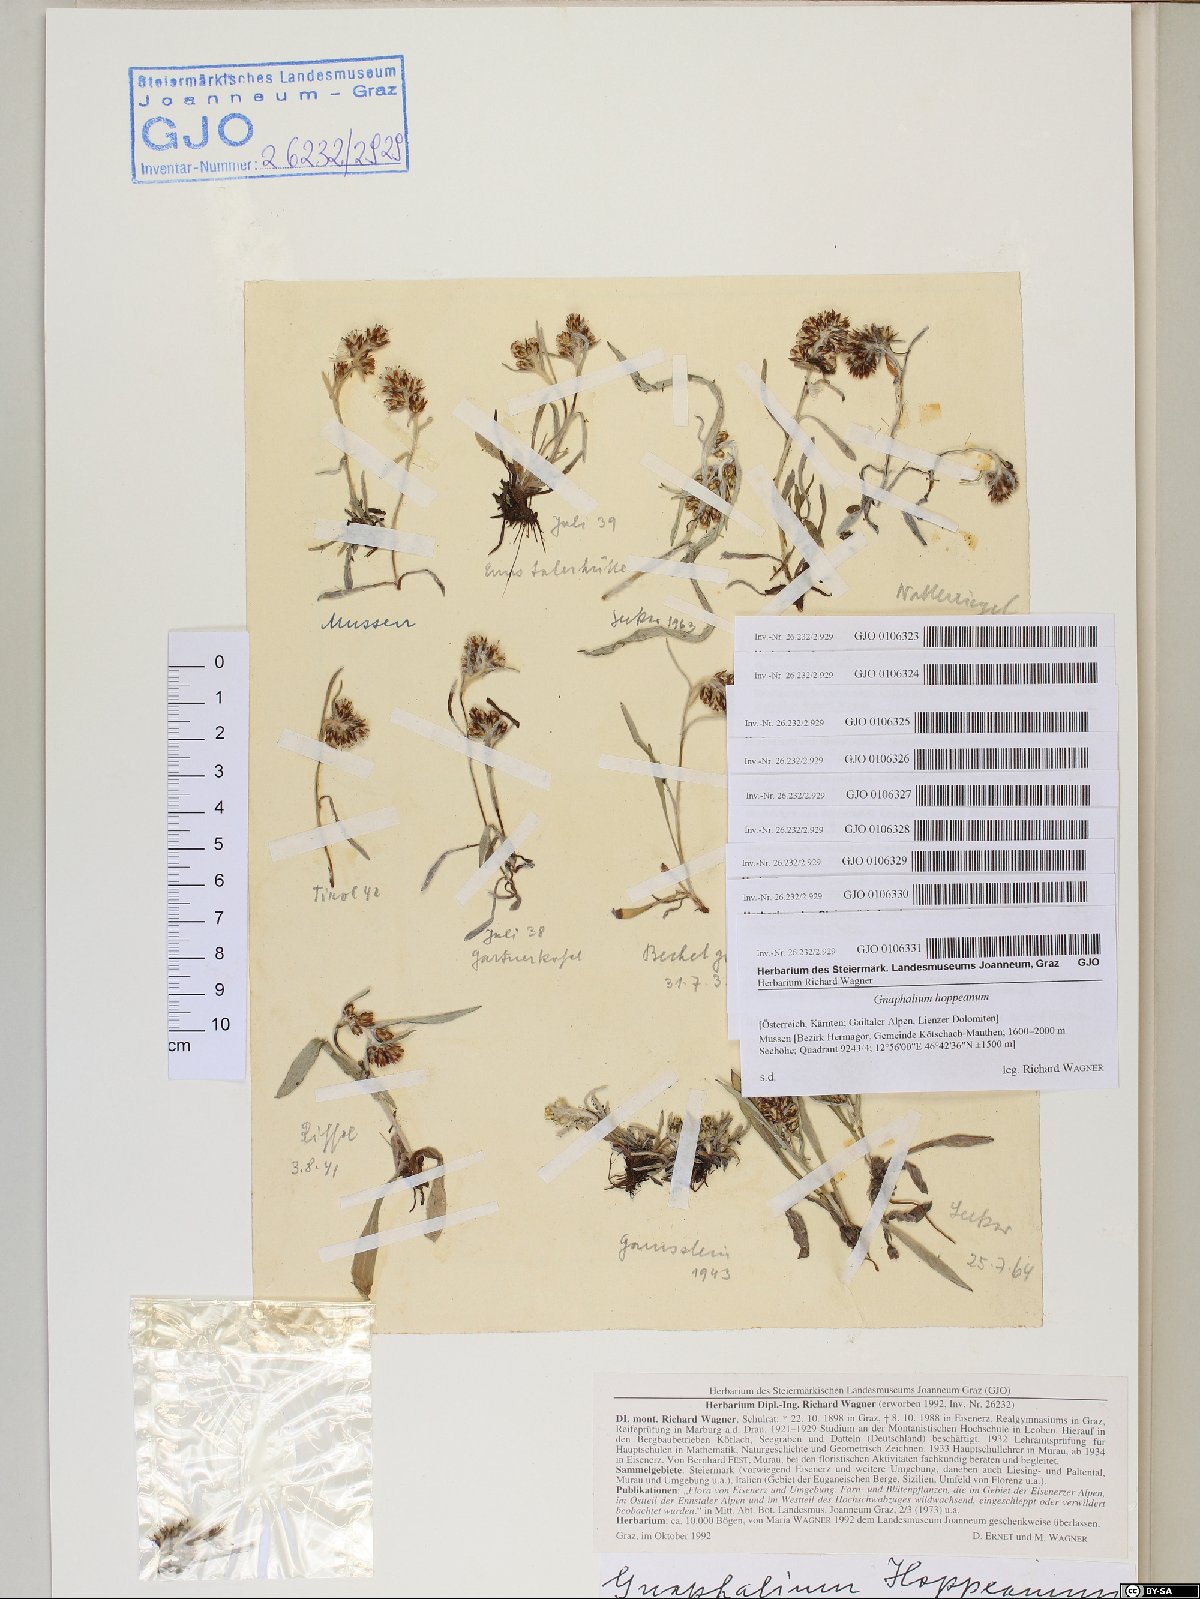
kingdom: Plantae
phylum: Tracheophyta
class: Magnoliopsida
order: Asterales
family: Asteraceae
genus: Omalotheca
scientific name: Omalotheca hoppeana
